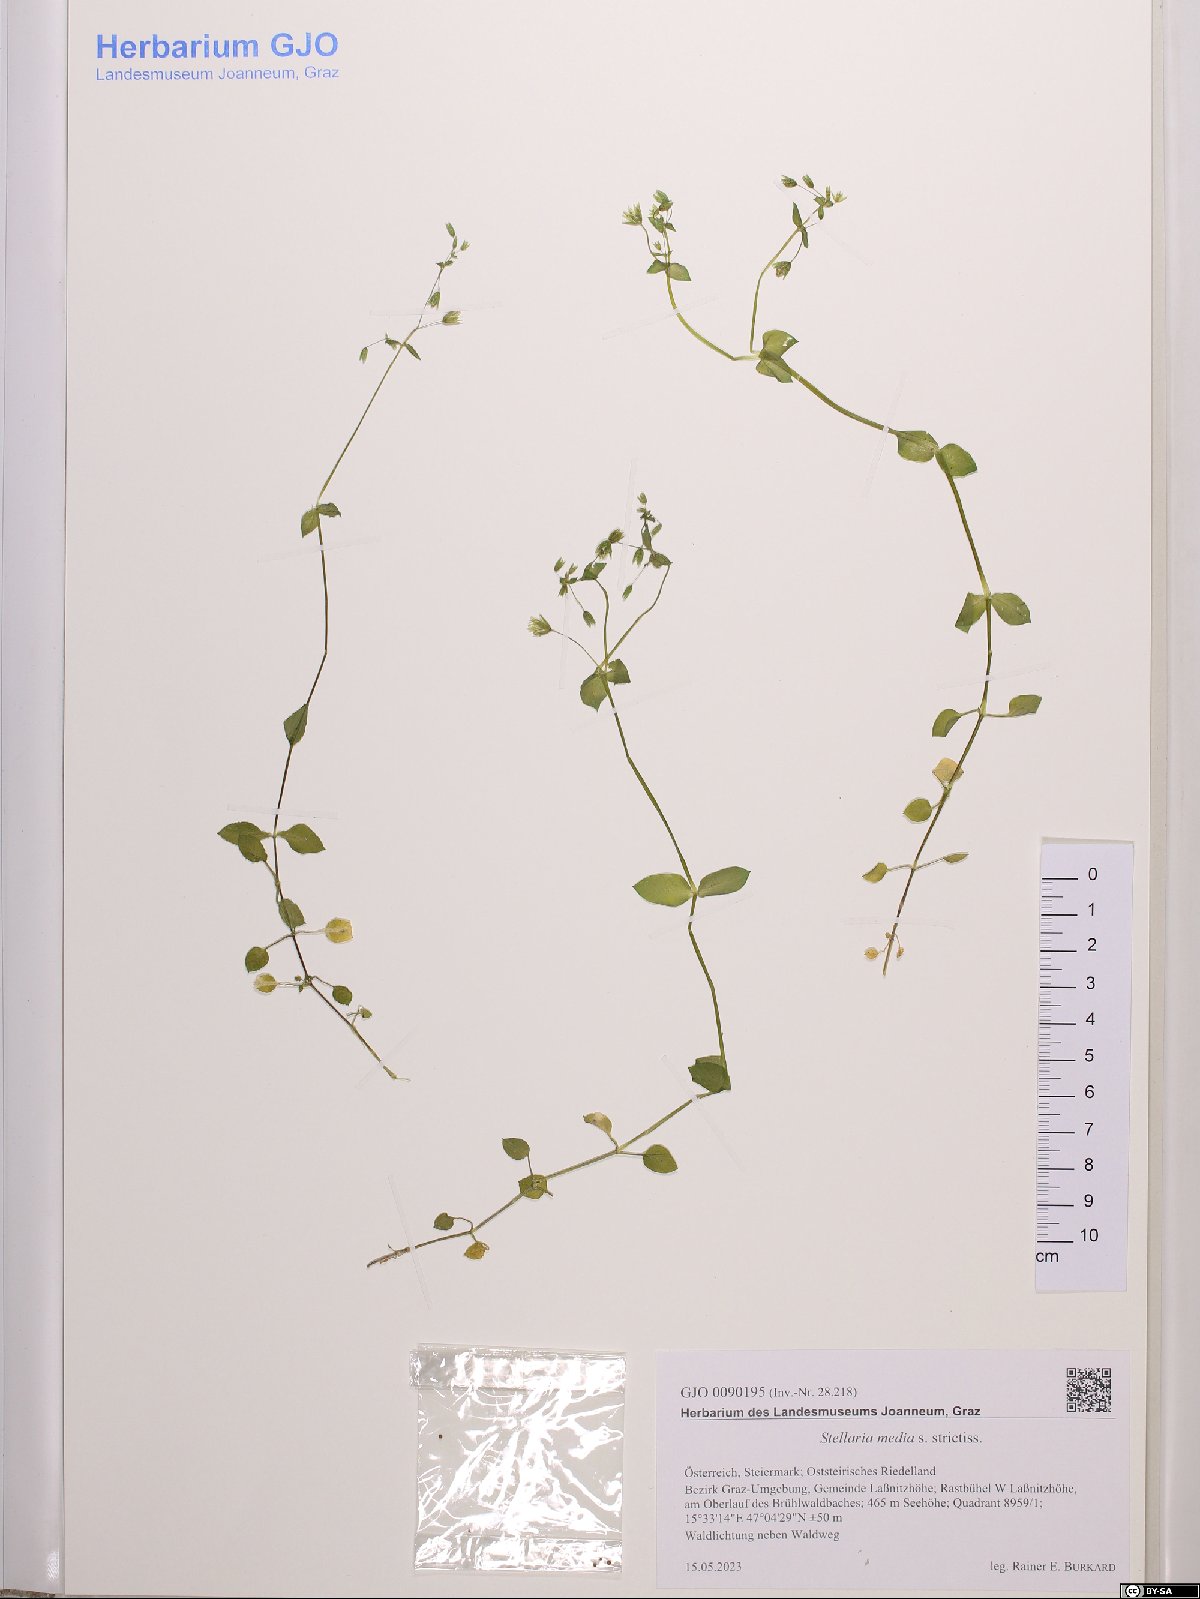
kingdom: Plantae
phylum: Tracheophyta
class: Magnoliopsida
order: Caryophyllales
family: Caryophyllaceae
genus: Stellaria
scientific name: Stellaria media
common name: Common chickweed
